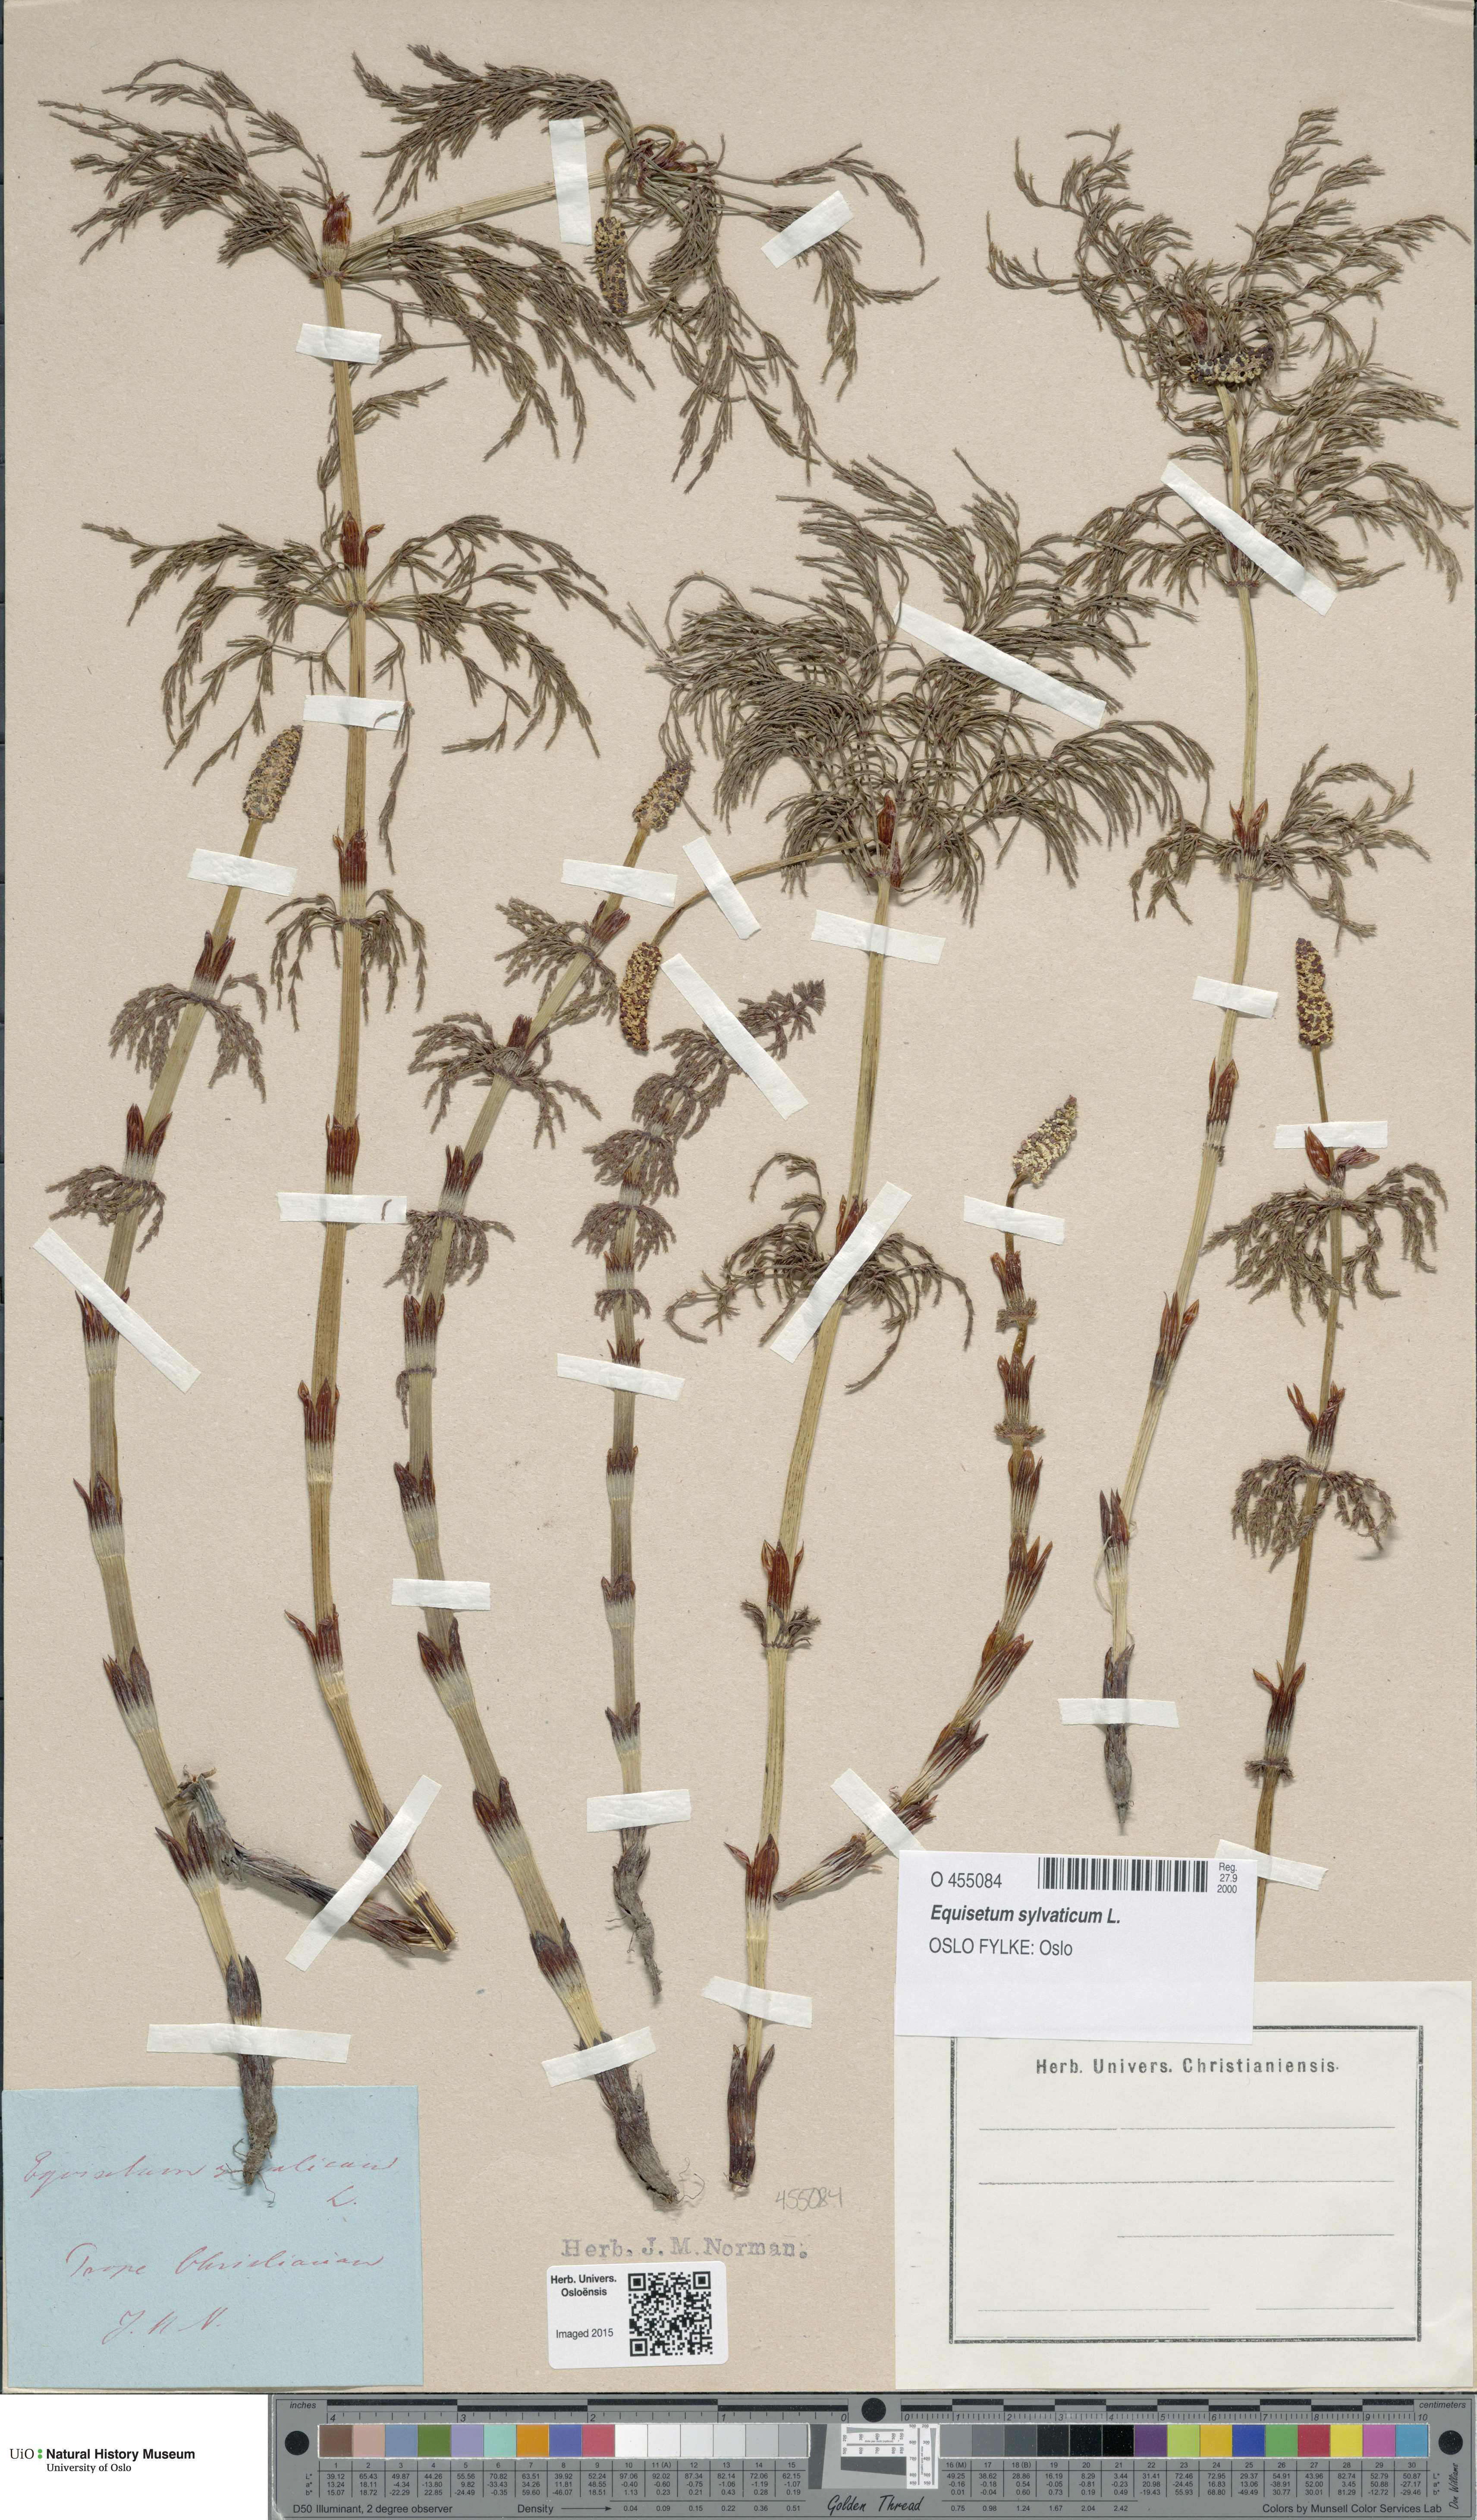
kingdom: Plantae
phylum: Tracheophyta
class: Polypodiopsida
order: Equisetales
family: Equisetaceae
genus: Equisetum
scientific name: Equisetum sylvaticum
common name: Wood horsetail
